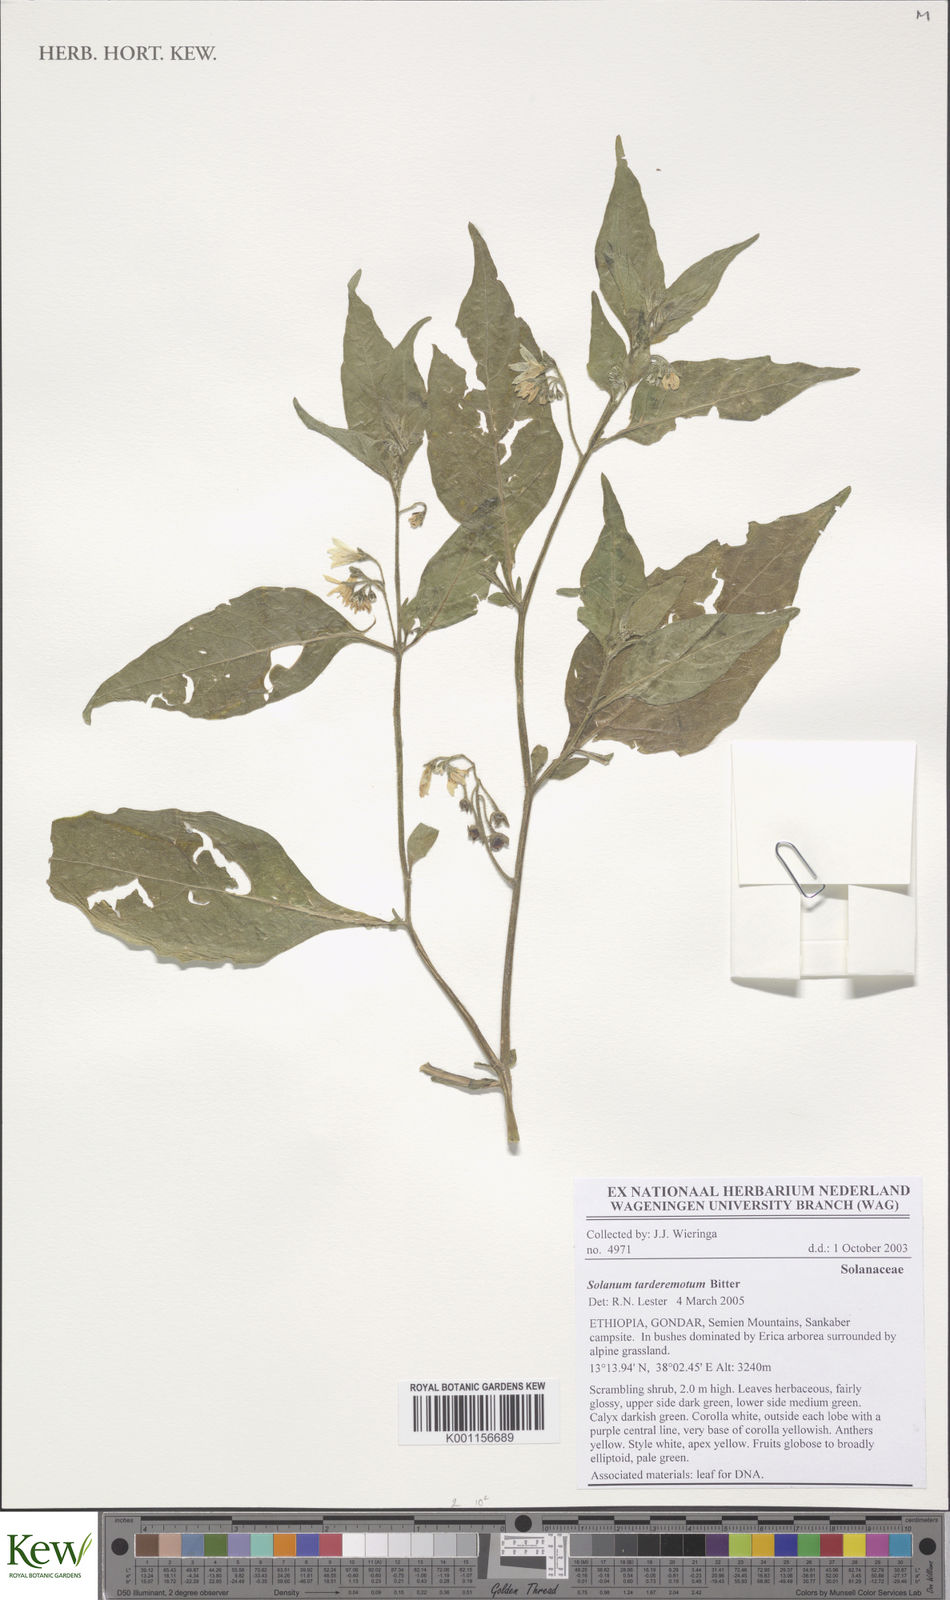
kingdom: Plantae
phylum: Tracheophyta
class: Magnoliopsida
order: Solanales
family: Solanaceae
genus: Solanum
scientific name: Solanum tarderemotum
